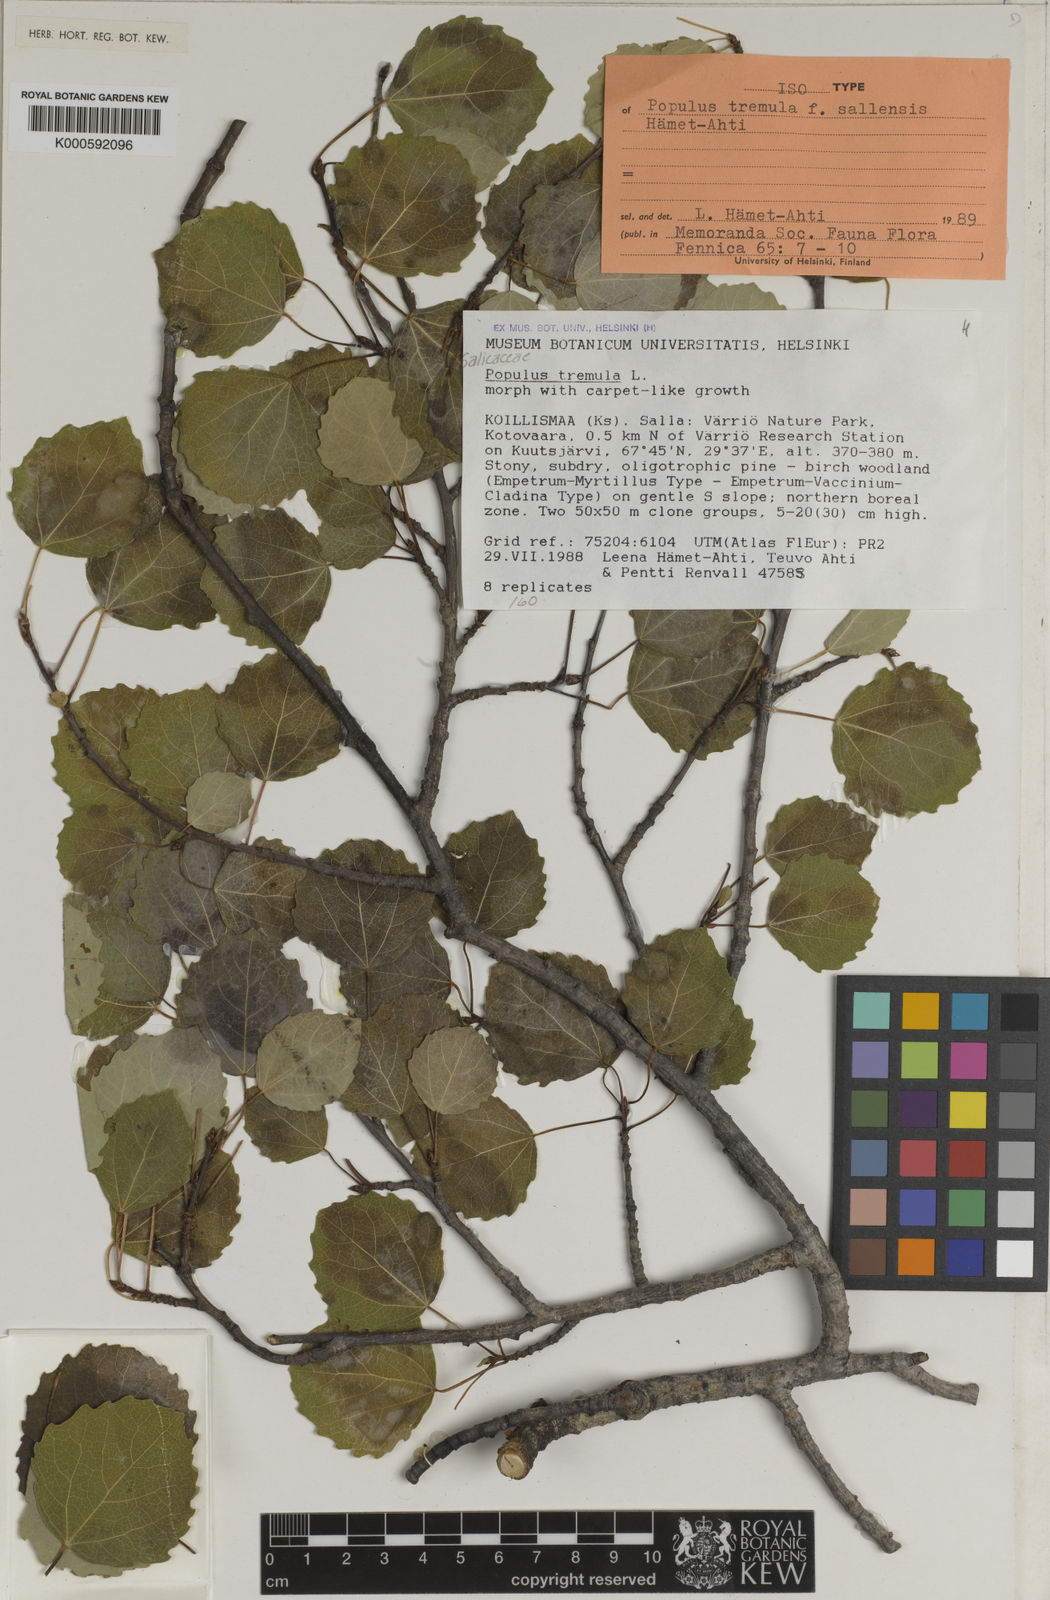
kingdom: Plantae
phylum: Tracheophyta
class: Magnoliopsida
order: Malpighiales
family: Salicaceae
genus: Populus
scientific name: Populus tremula
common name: European aspen
